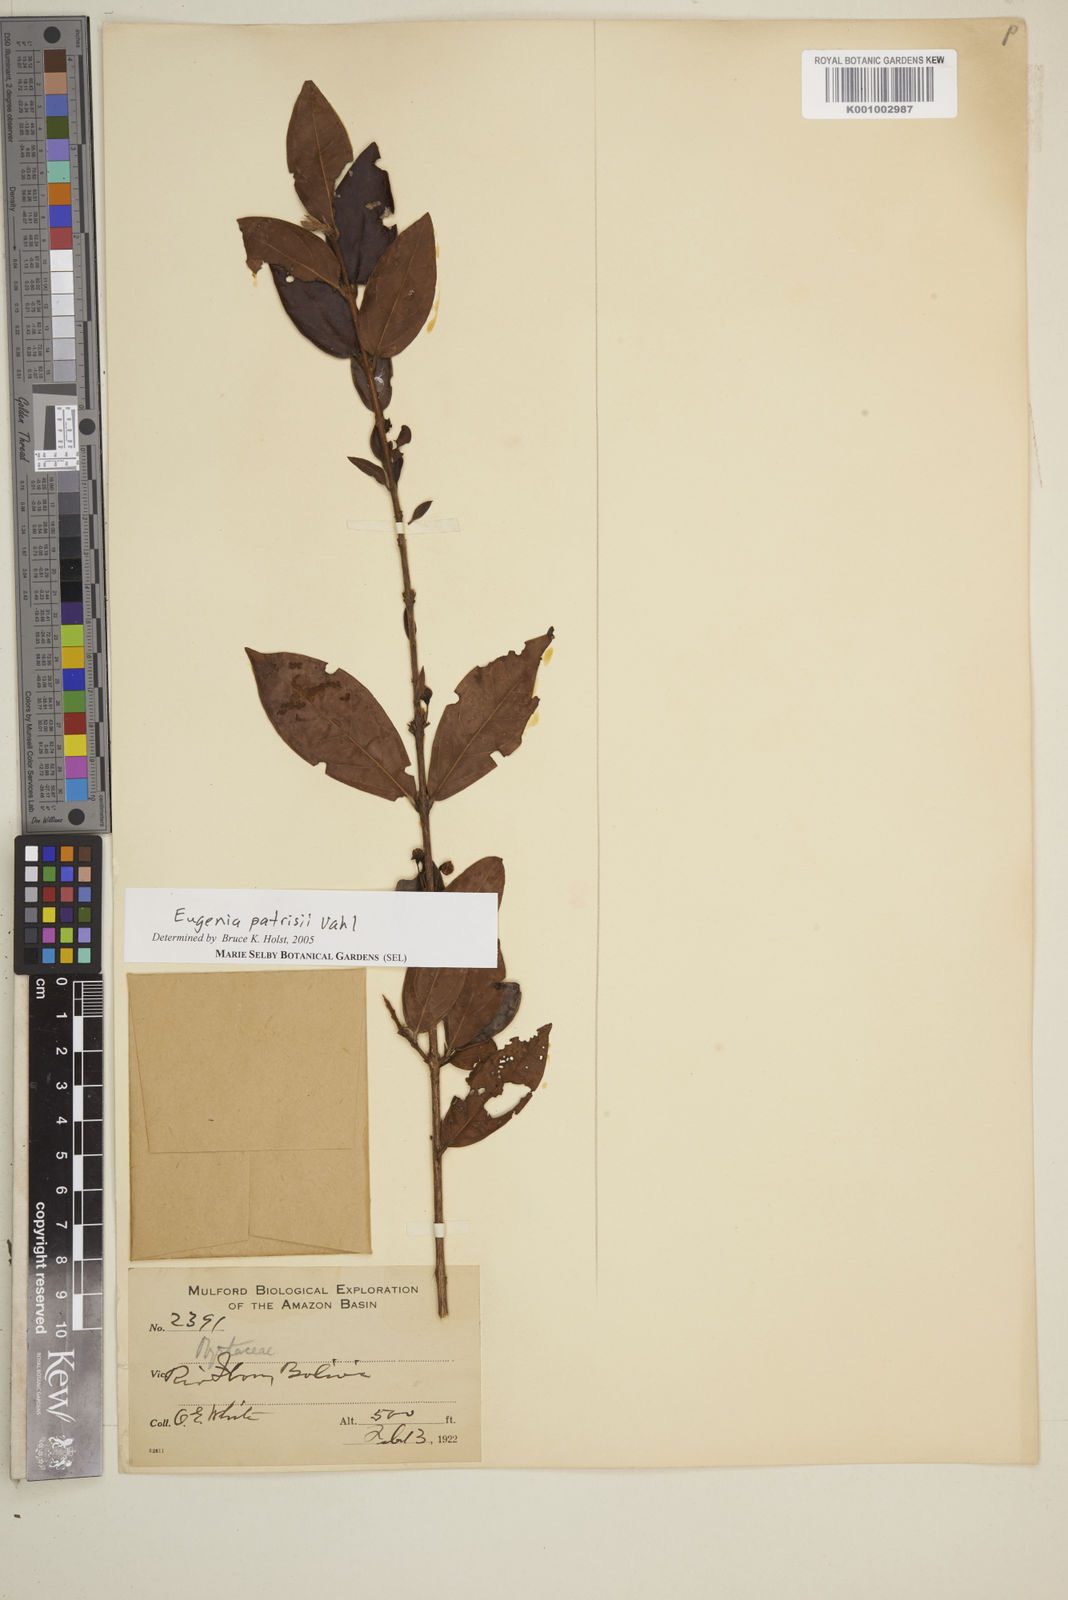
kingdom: Plantae
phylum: Tracheophyta
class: Magnoliopsida
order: Myrtales
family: Myrtaceae
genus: Eugenia
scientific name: Eugenia patrisii
